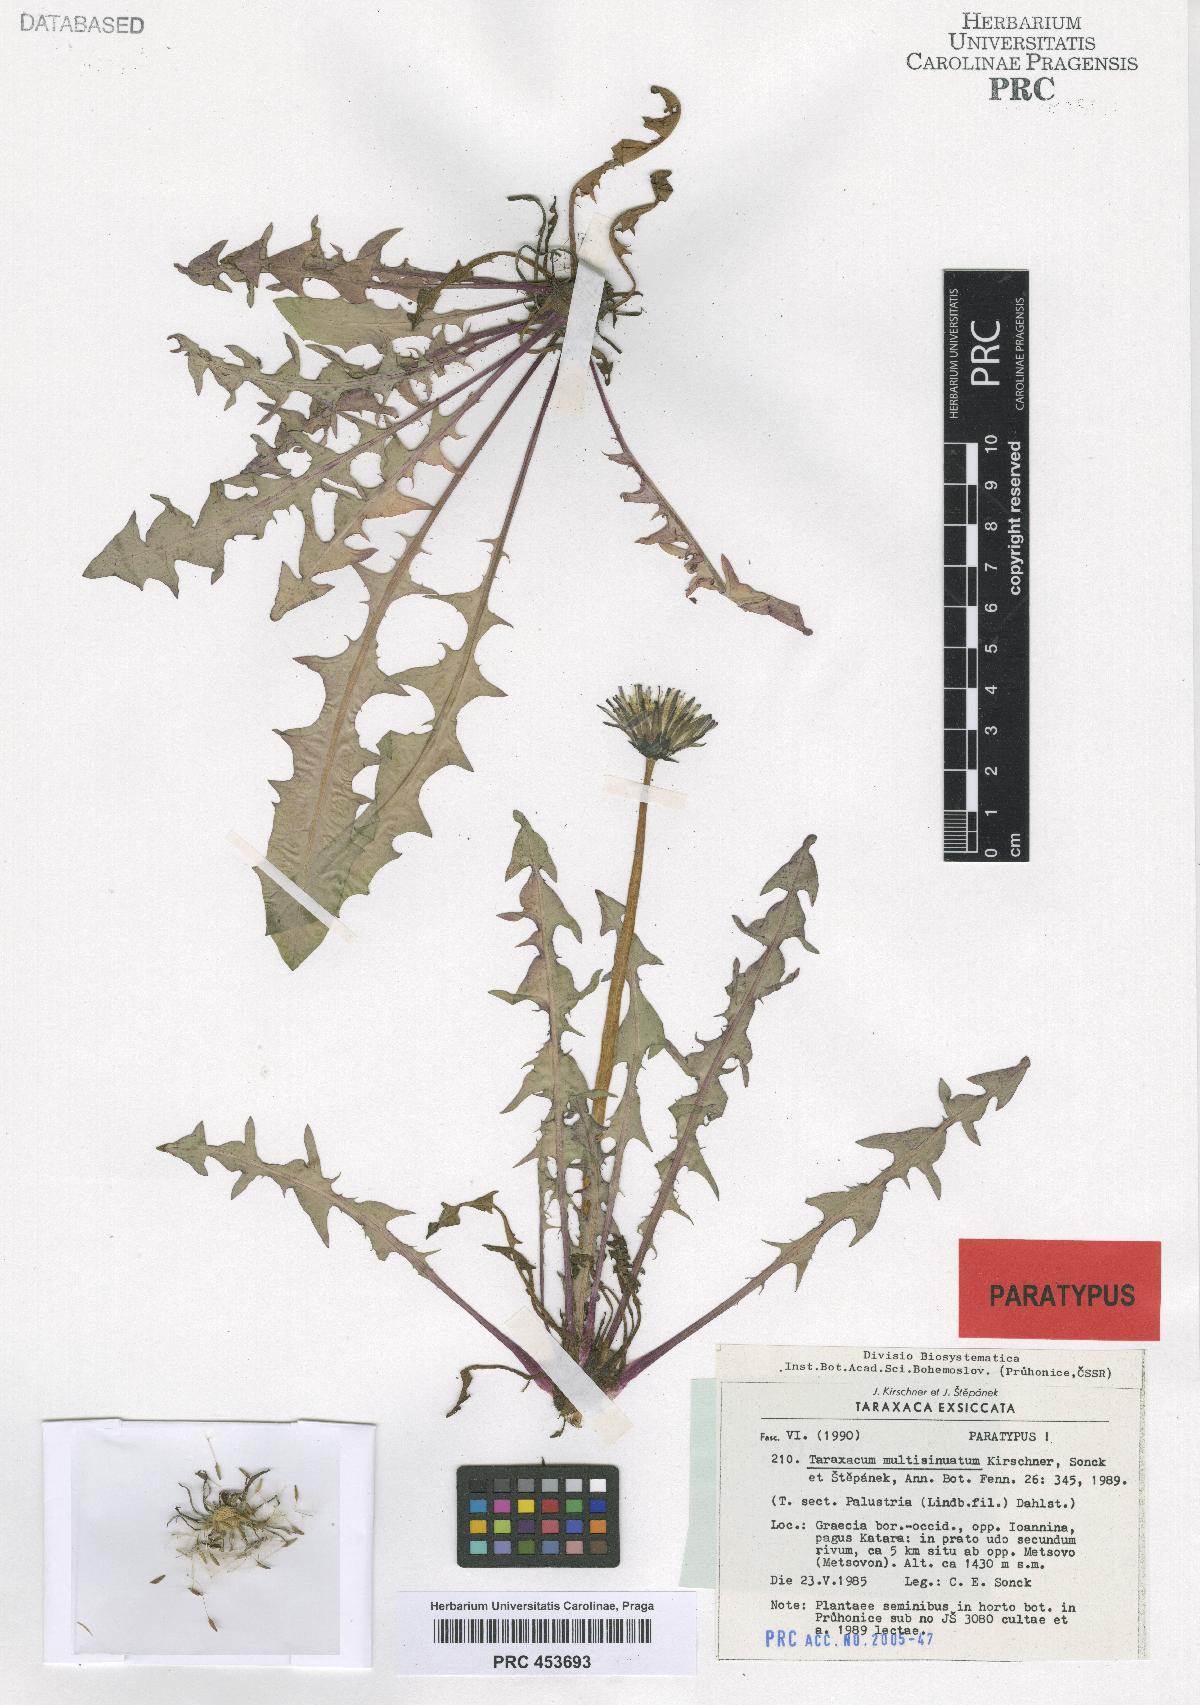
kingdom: Plantae
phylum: Tracheophyta
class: Magnoliopsida
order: Asterales
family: Asteraceae
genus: Taraxacum
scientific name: Taraxacum multisinuatum
